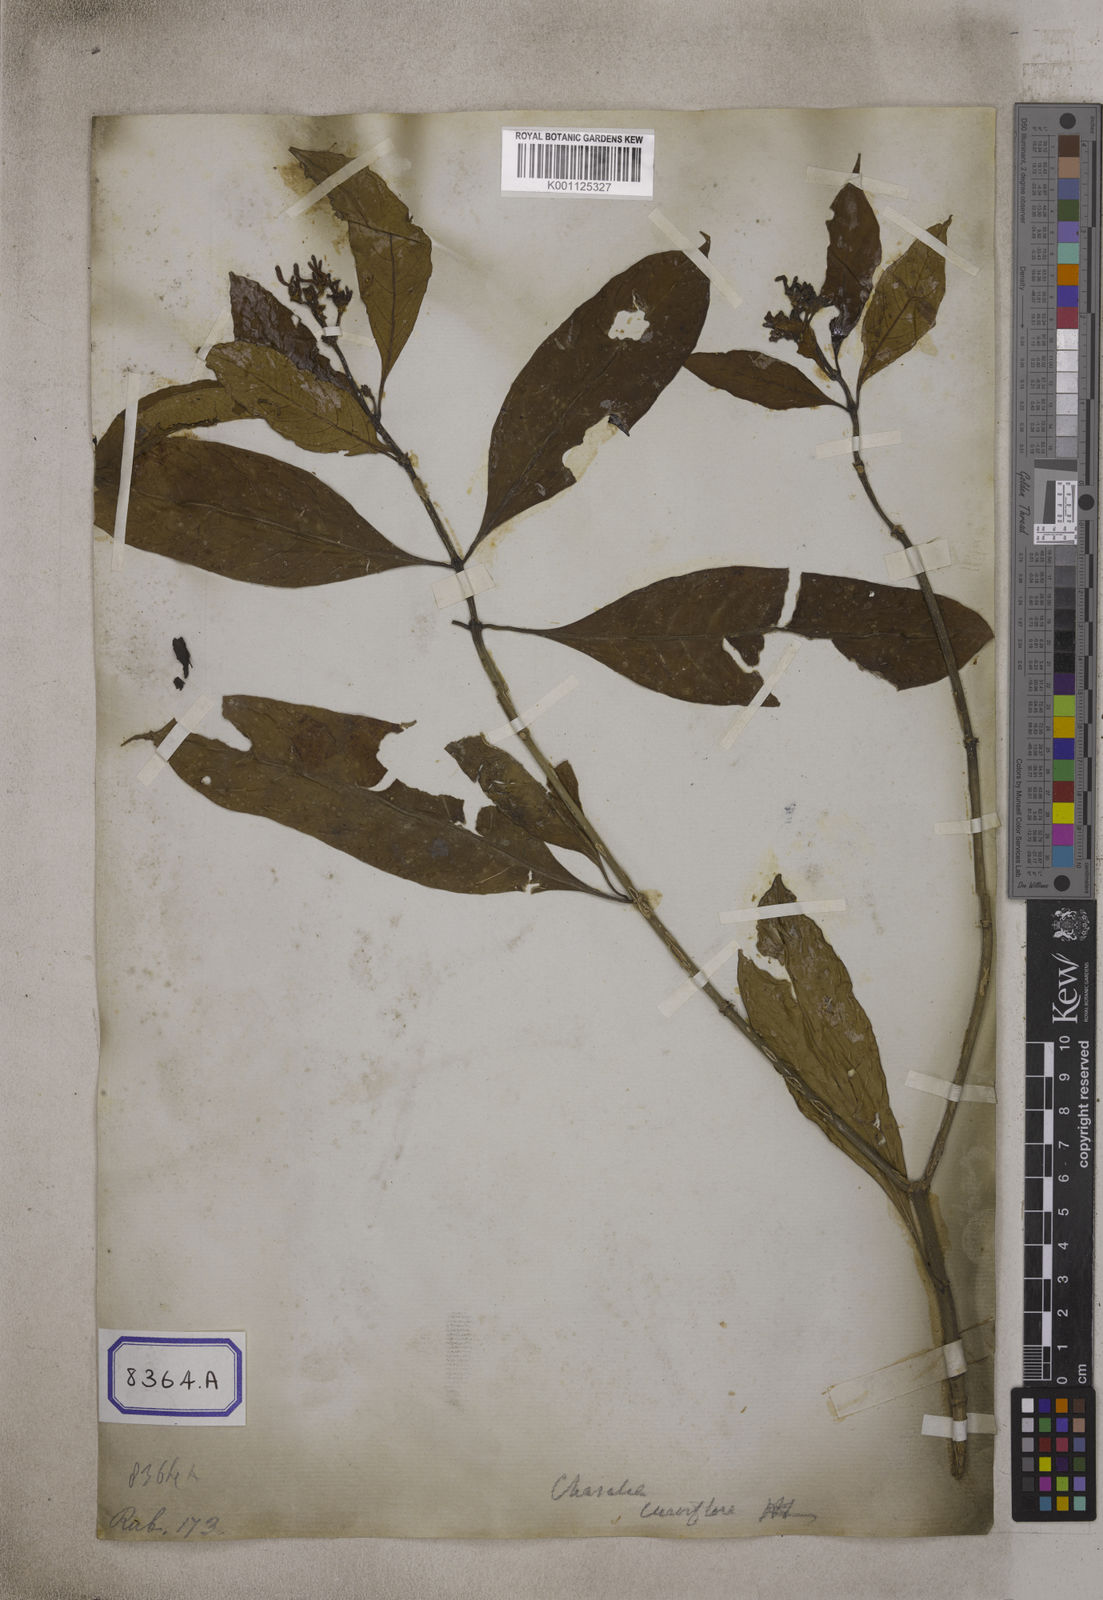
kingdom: Plantae
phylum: Tracheophyta
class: Magnoliopsida
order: Gentianales
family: Rubiaceae
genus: Chassalia
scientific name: Chassalia curviflora
